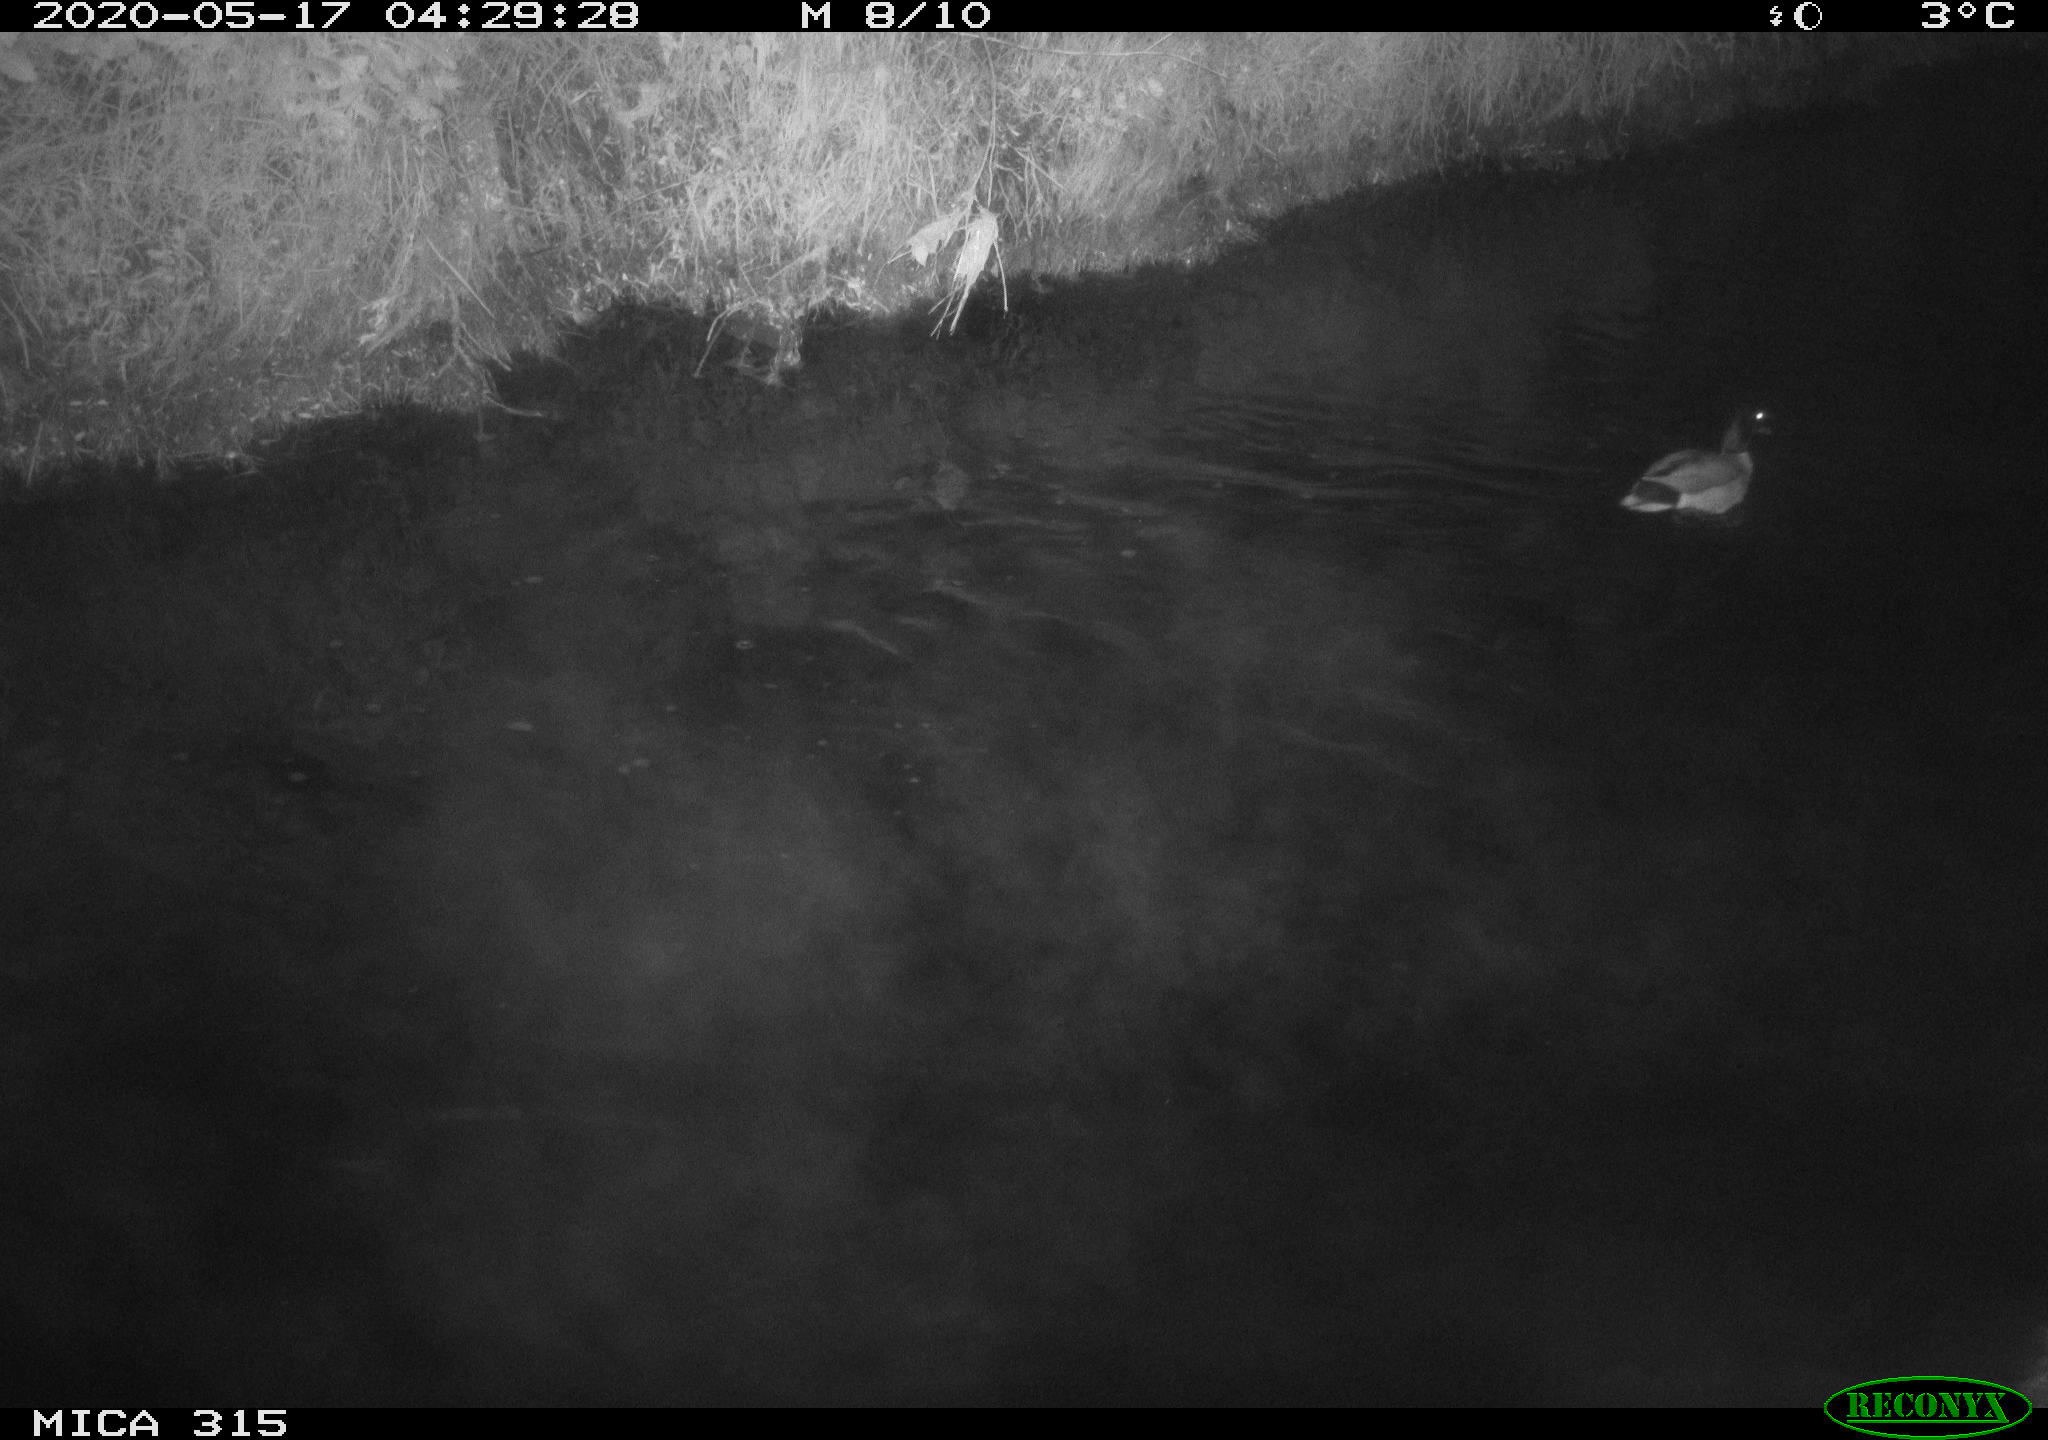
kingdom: Animalia
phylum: Chordata
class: Aves
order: Anseriformes
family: Anatidae
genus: Anas
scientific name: Anas platyrhynchos
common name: Mallard
